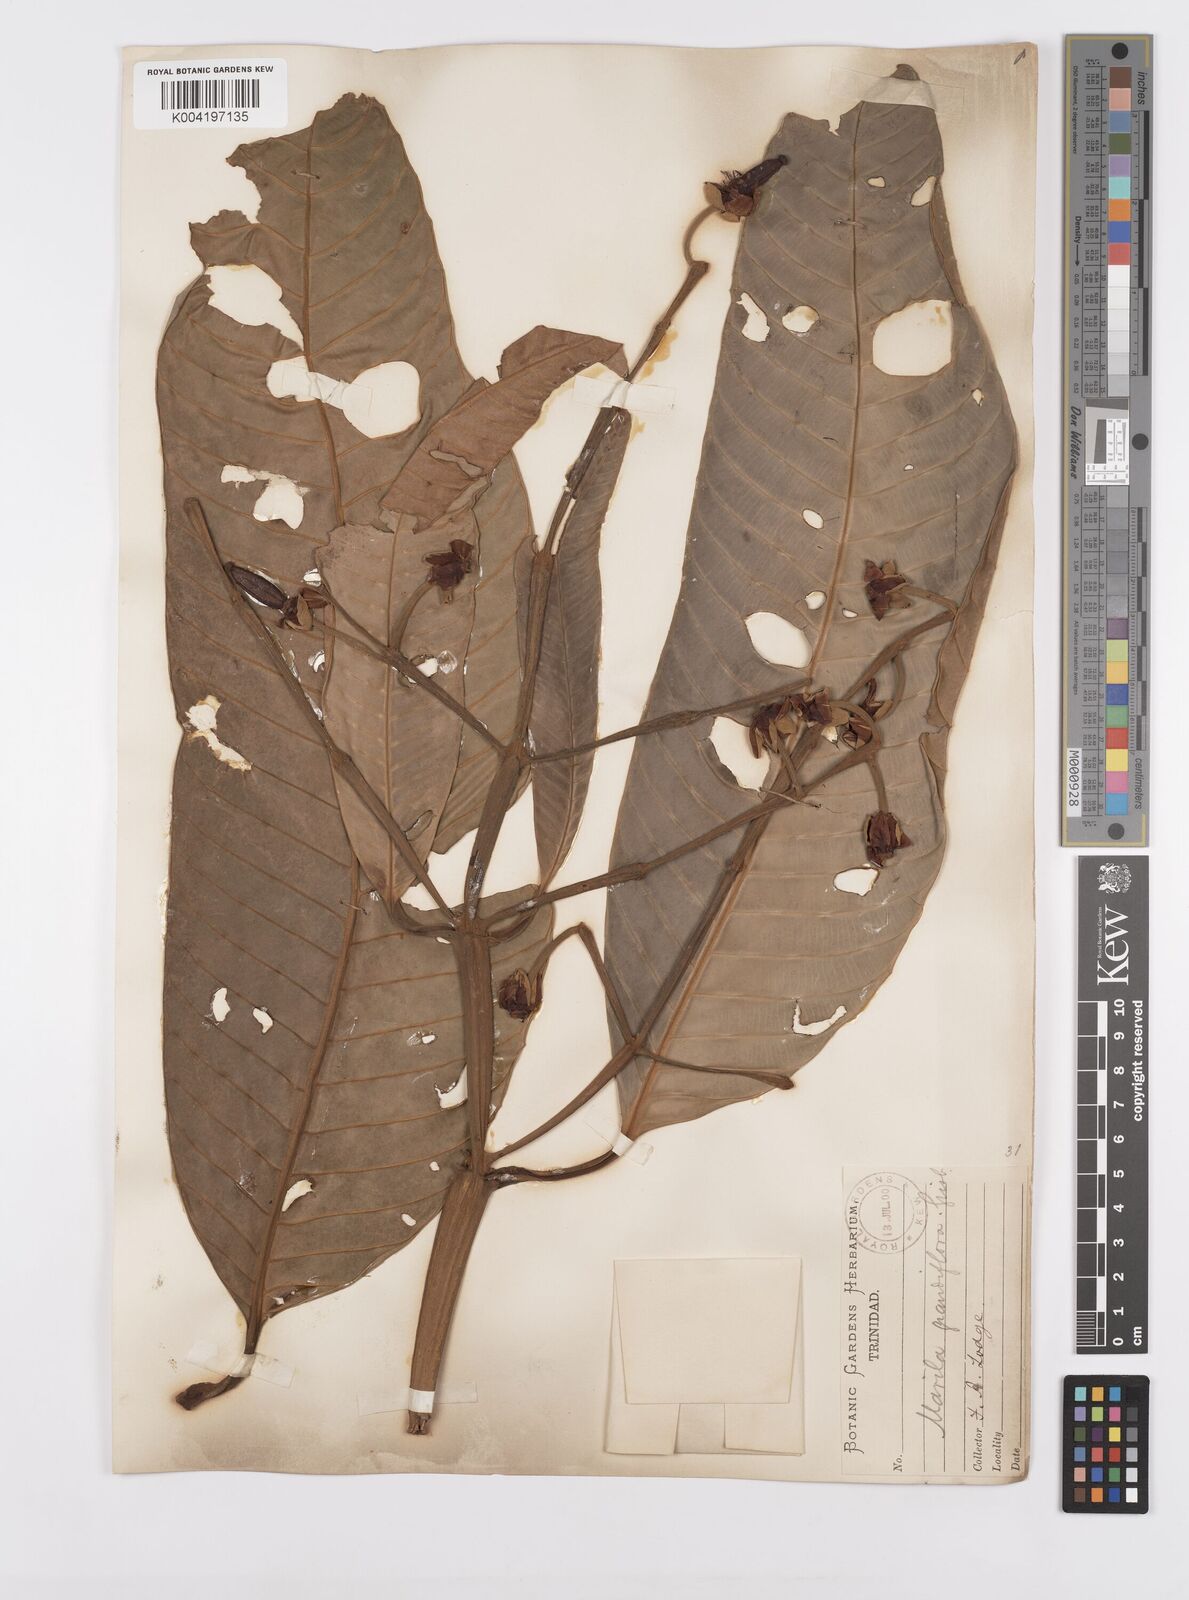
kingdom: Plantae
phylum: Tracheophyta
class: Magnoliopsida
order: Malpighiales
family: Calophyllaceae
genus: Marila
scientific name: Marila grandiflora
